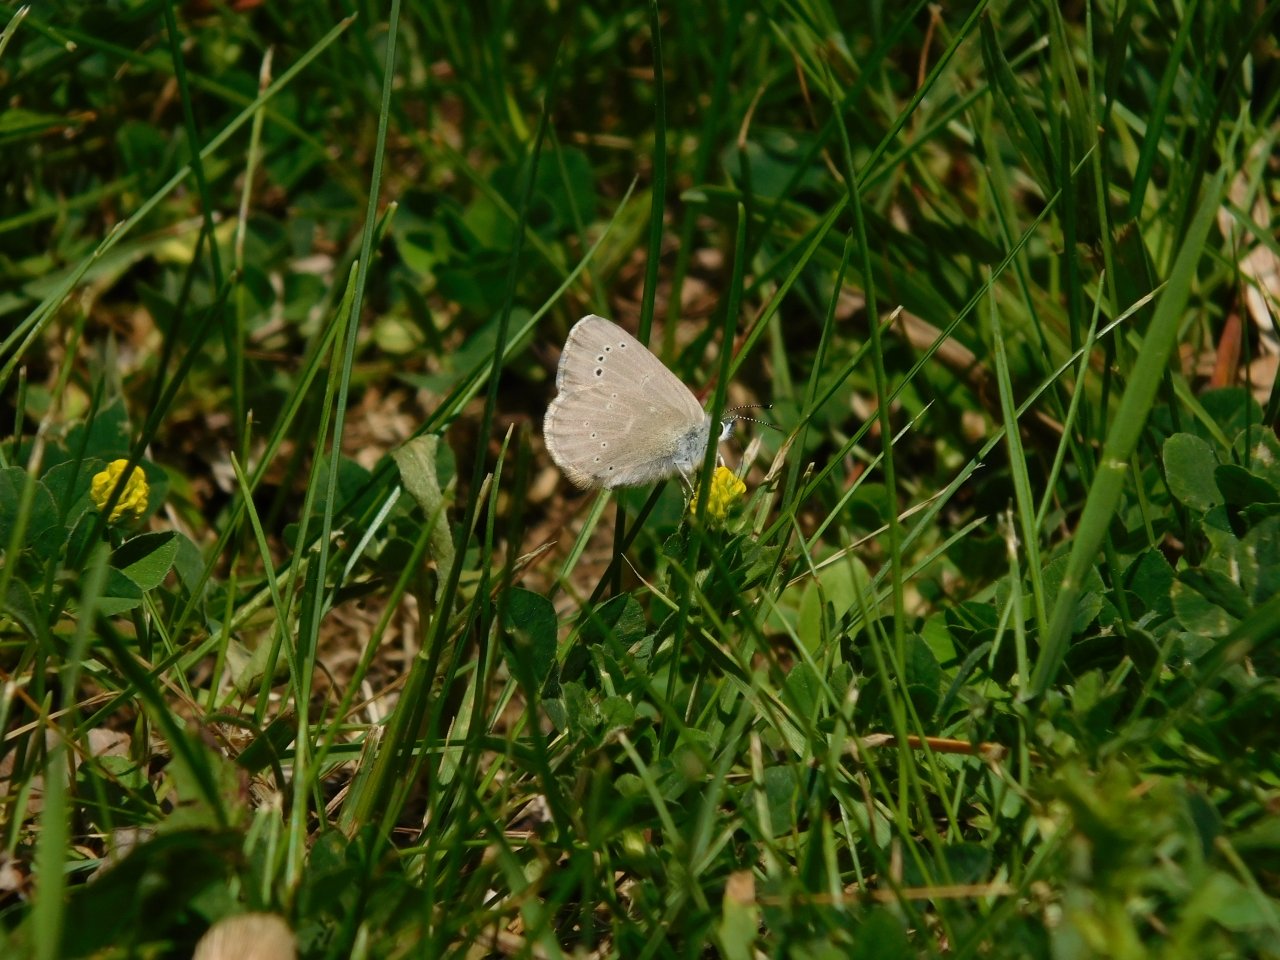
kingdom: Animalia
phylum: Arthropoda
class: Insecta
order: Lepidoptera
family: Lycaenidae
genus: Glaucopsyche
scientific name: Glaucopsyche lygdamus
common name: Silvery Blue
